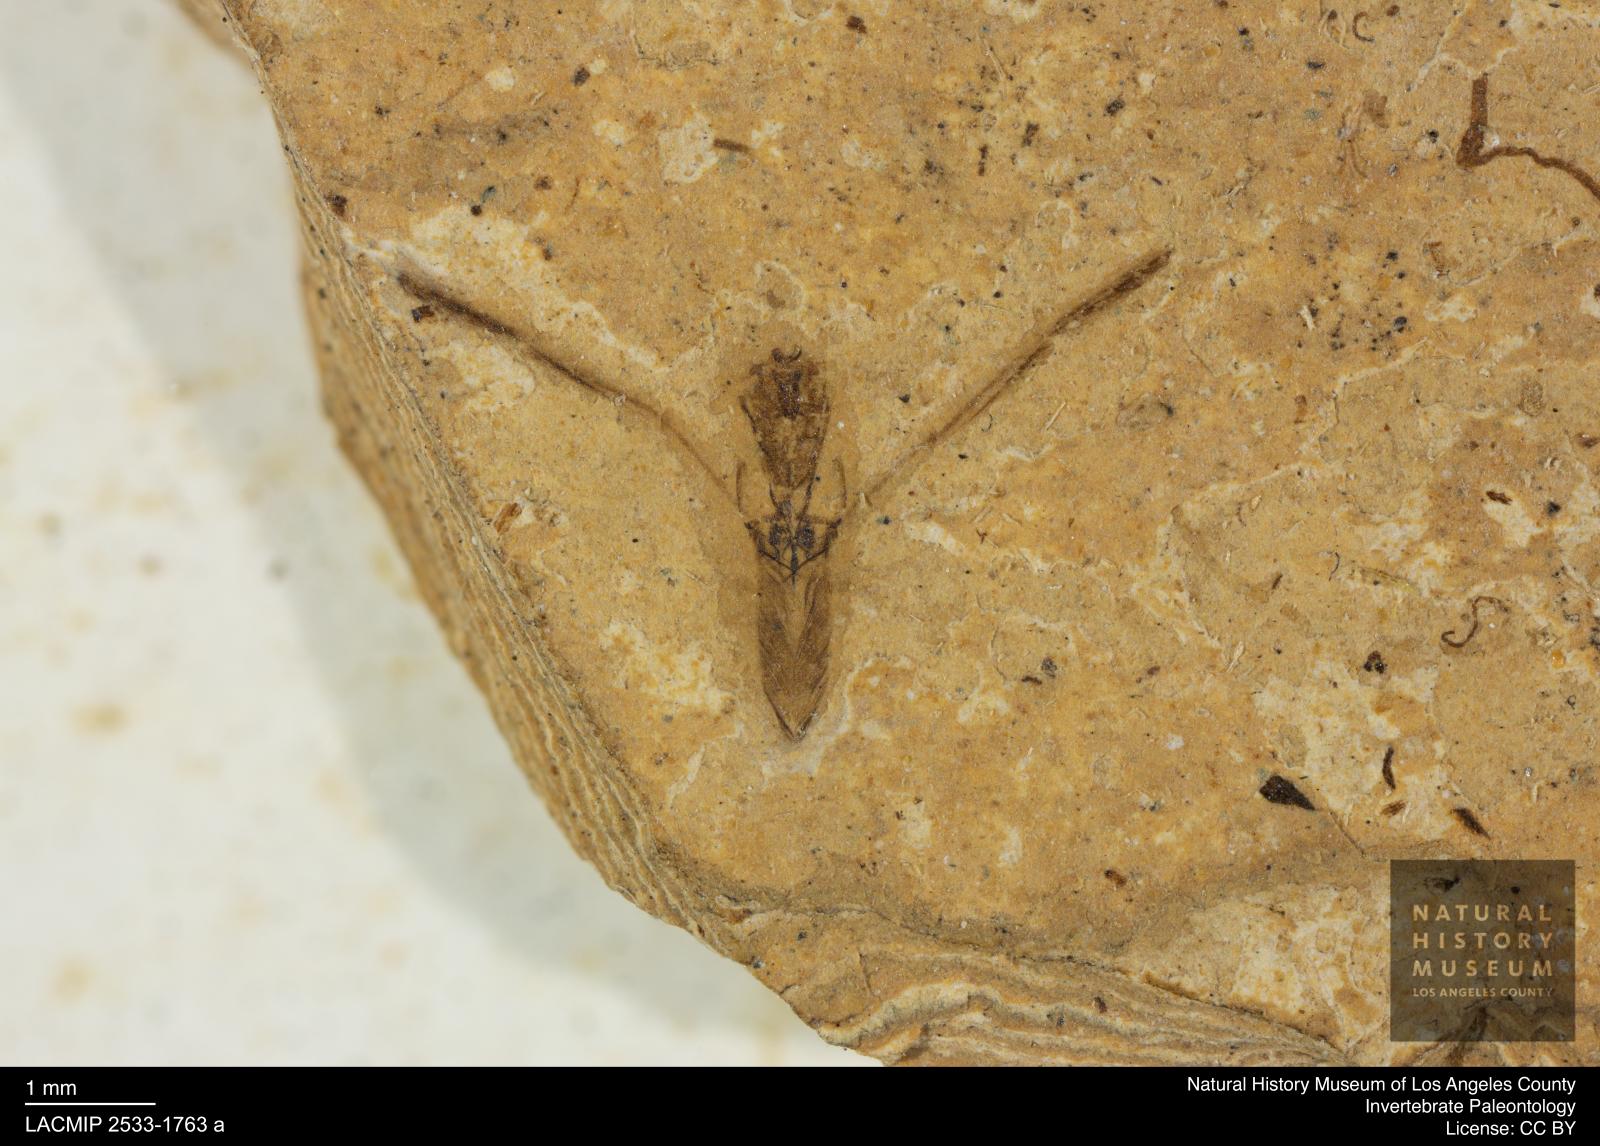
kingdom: Animalia
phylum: Arthropoda
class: Insecta
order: Hemiptera
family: Notonectidae
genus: Notonecta
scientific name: Notonecta
